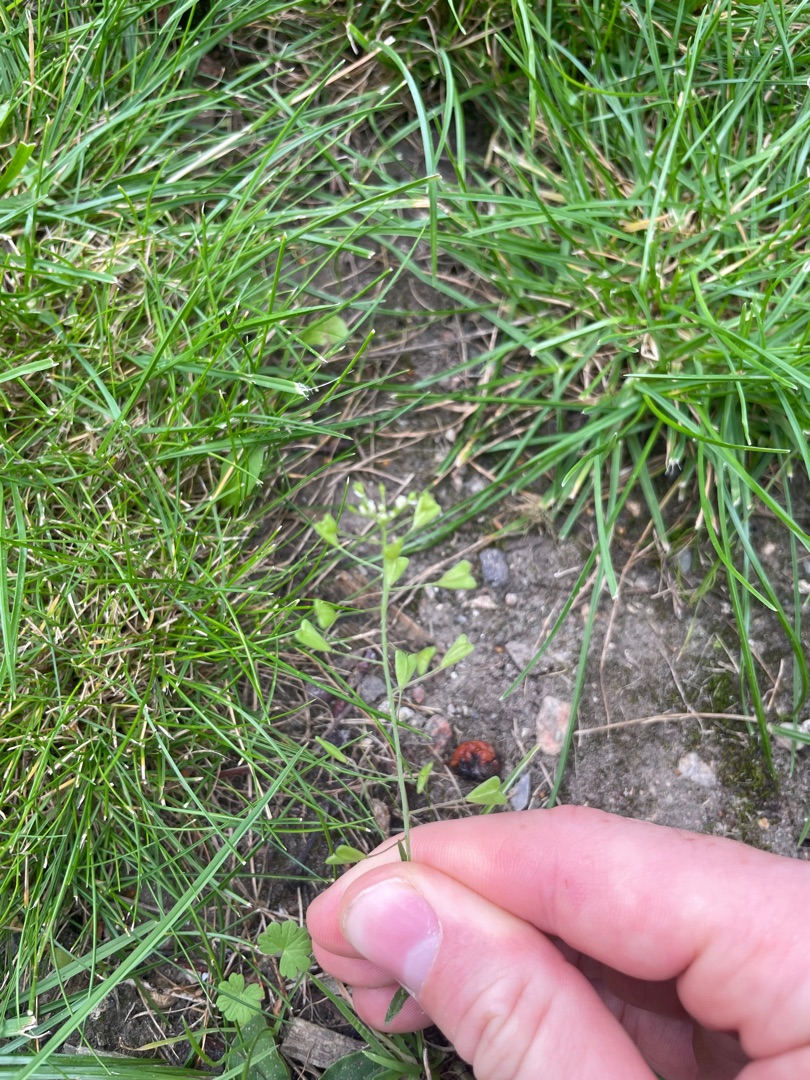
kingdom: Plantae
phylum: Tracheophyta
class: Magnoliopsida
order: Brassicales
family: Brassicaceae
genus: Capsella
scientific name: Capsella bursa-pastoris
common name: Hyrdetaske
